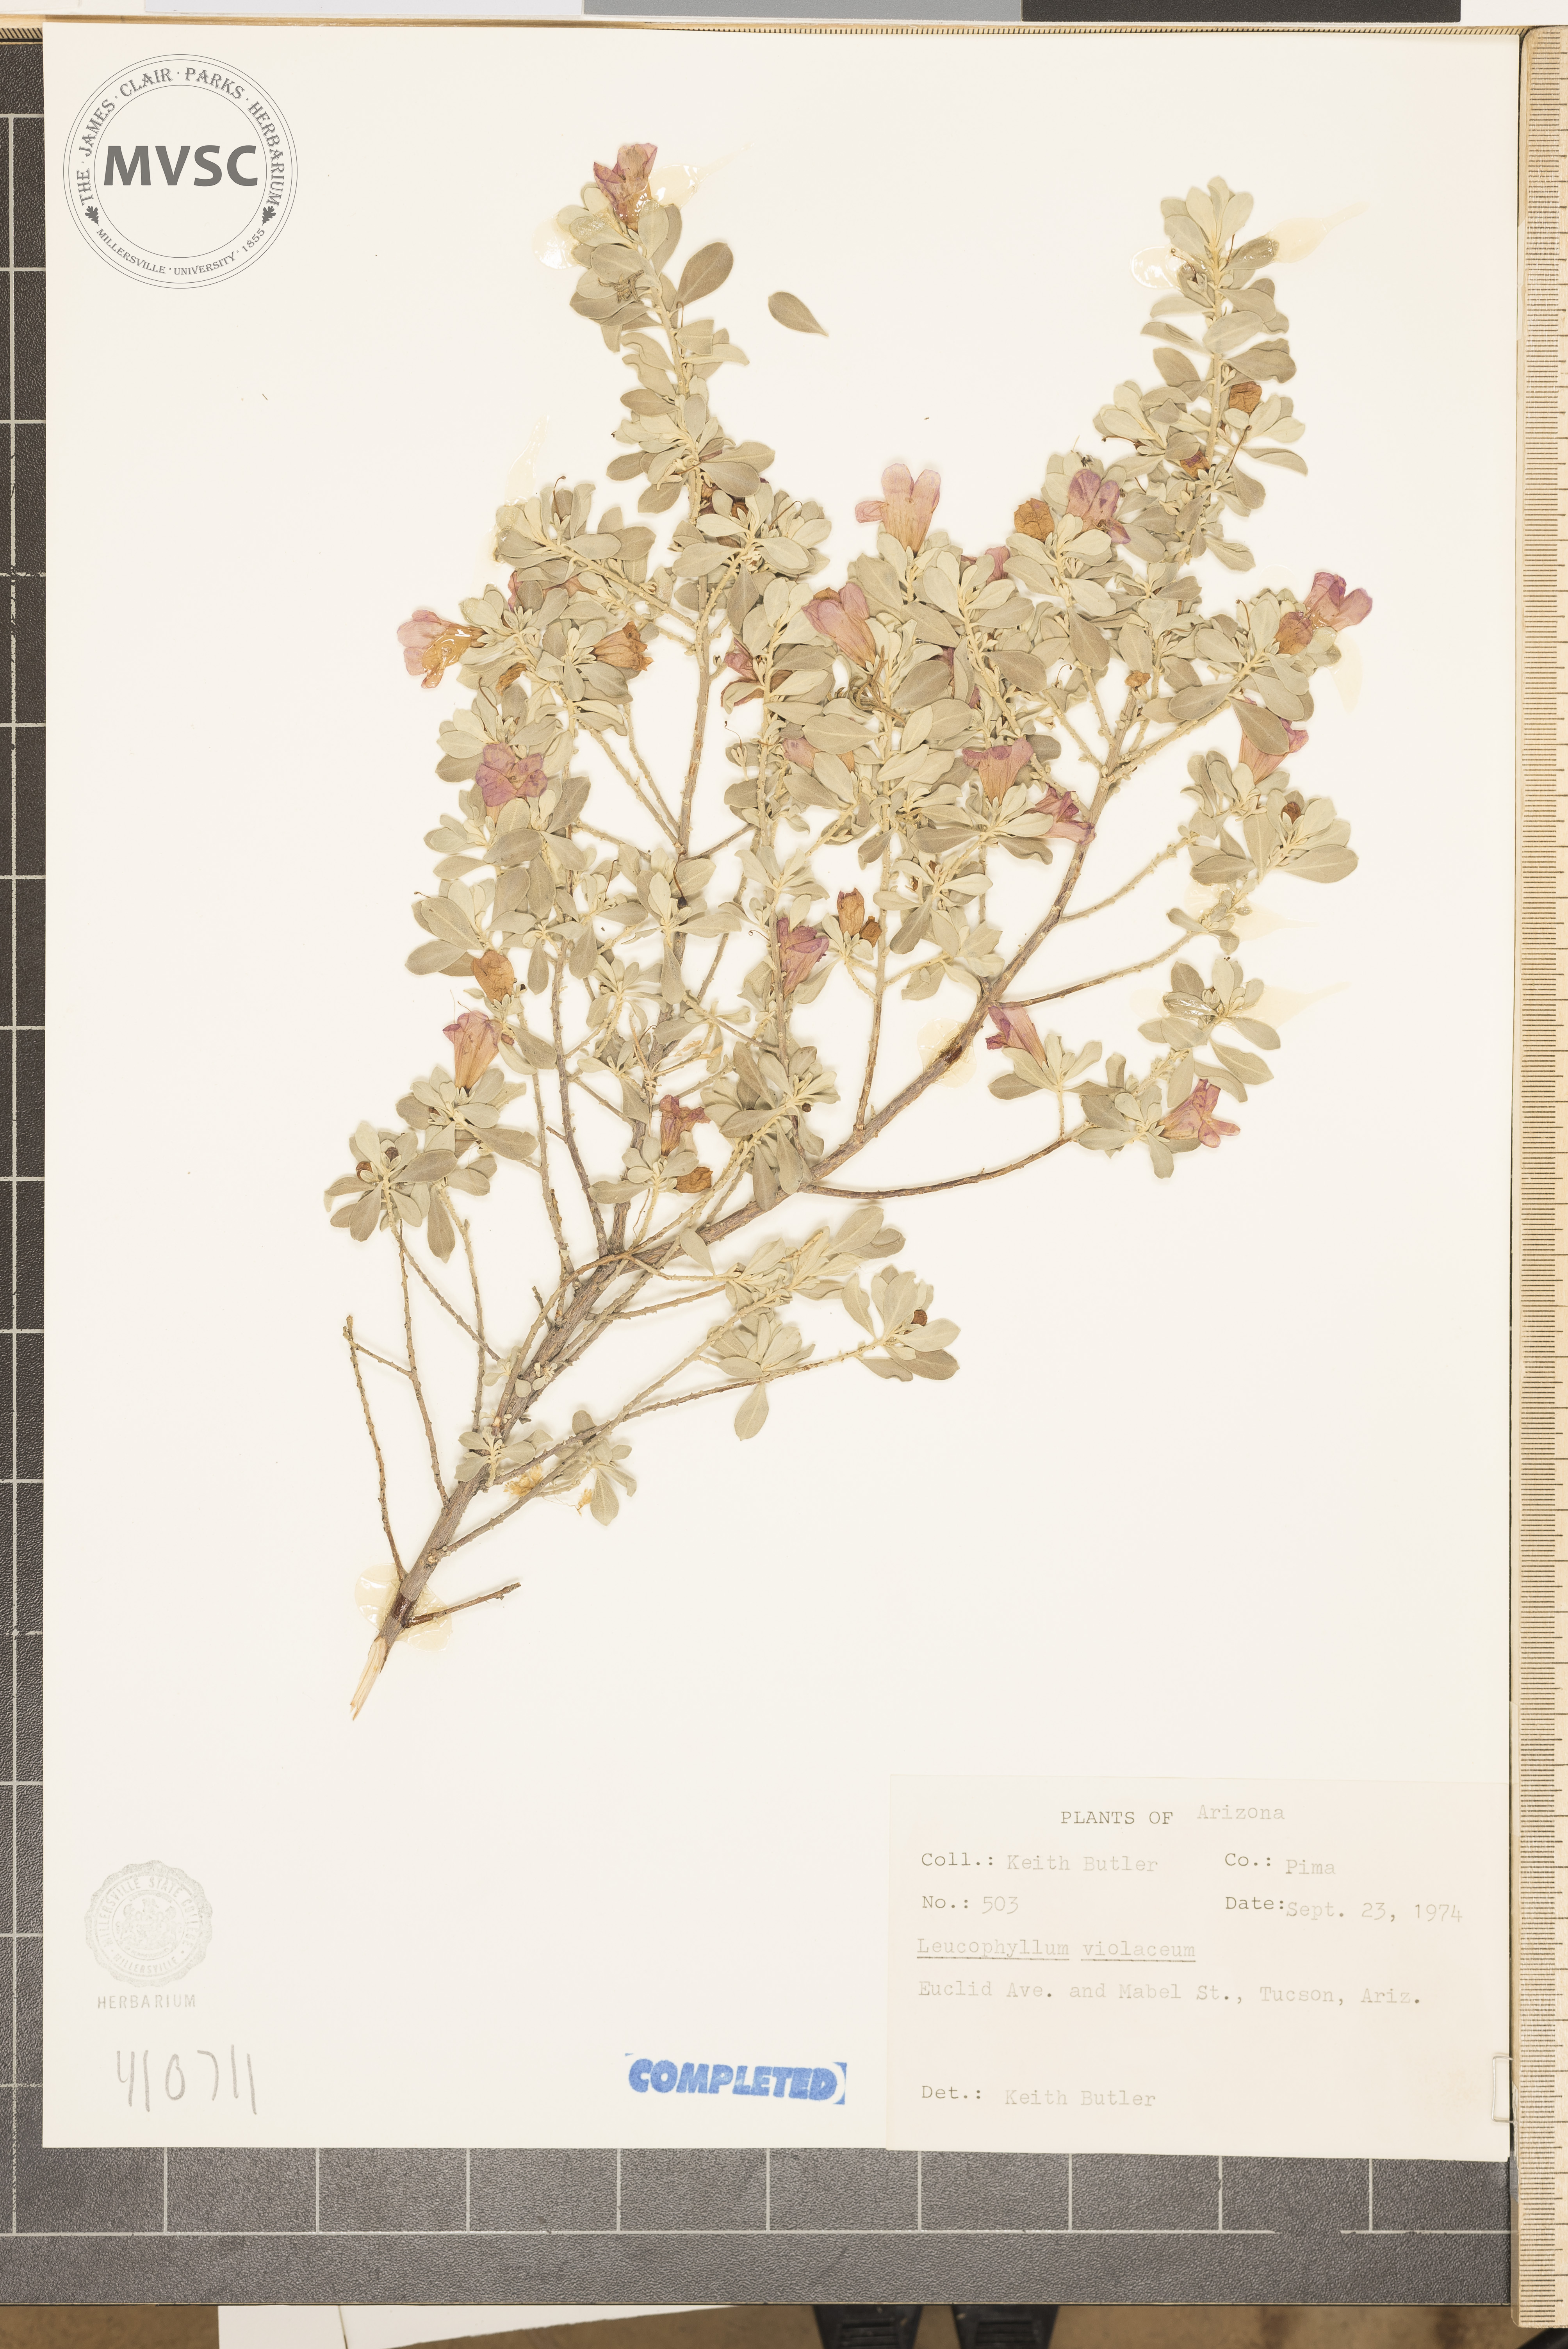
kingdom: Plantae
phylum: Tracheophyta
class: Magnoliopsida
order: Lamiales
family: Scrophulariaceae
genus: Leucophyllum
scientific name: Leucophyllum candidum
